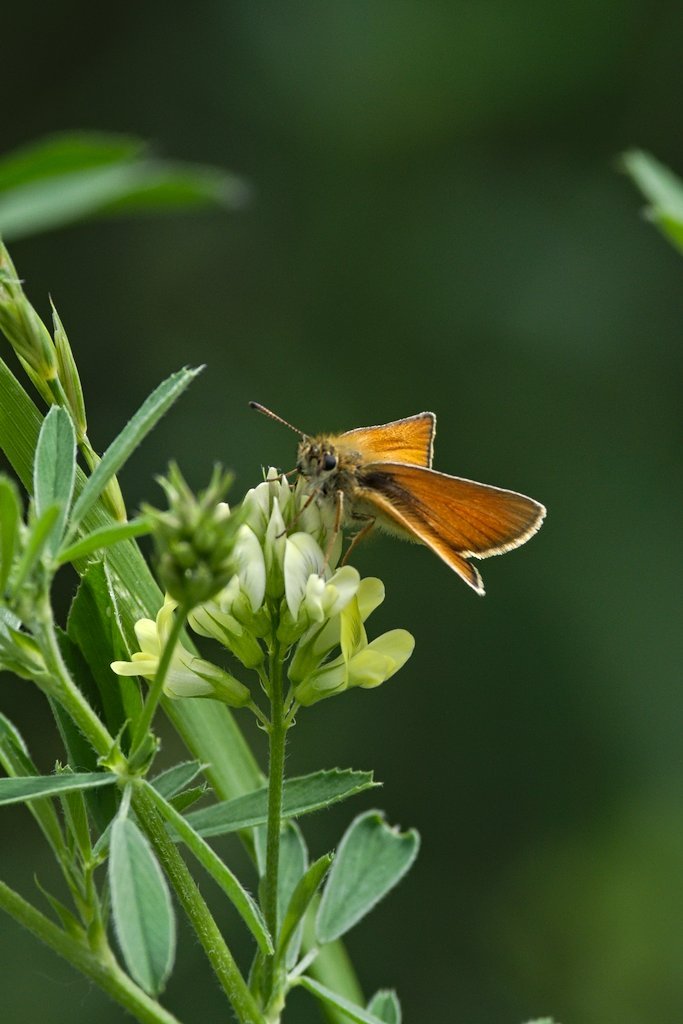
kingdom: Animalia
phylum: Arthropoda
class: Insecta
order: Lepidoptera
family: Hesperiidae
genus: Thymelicus
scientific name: Thymelicus lineola
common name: European Skipper
